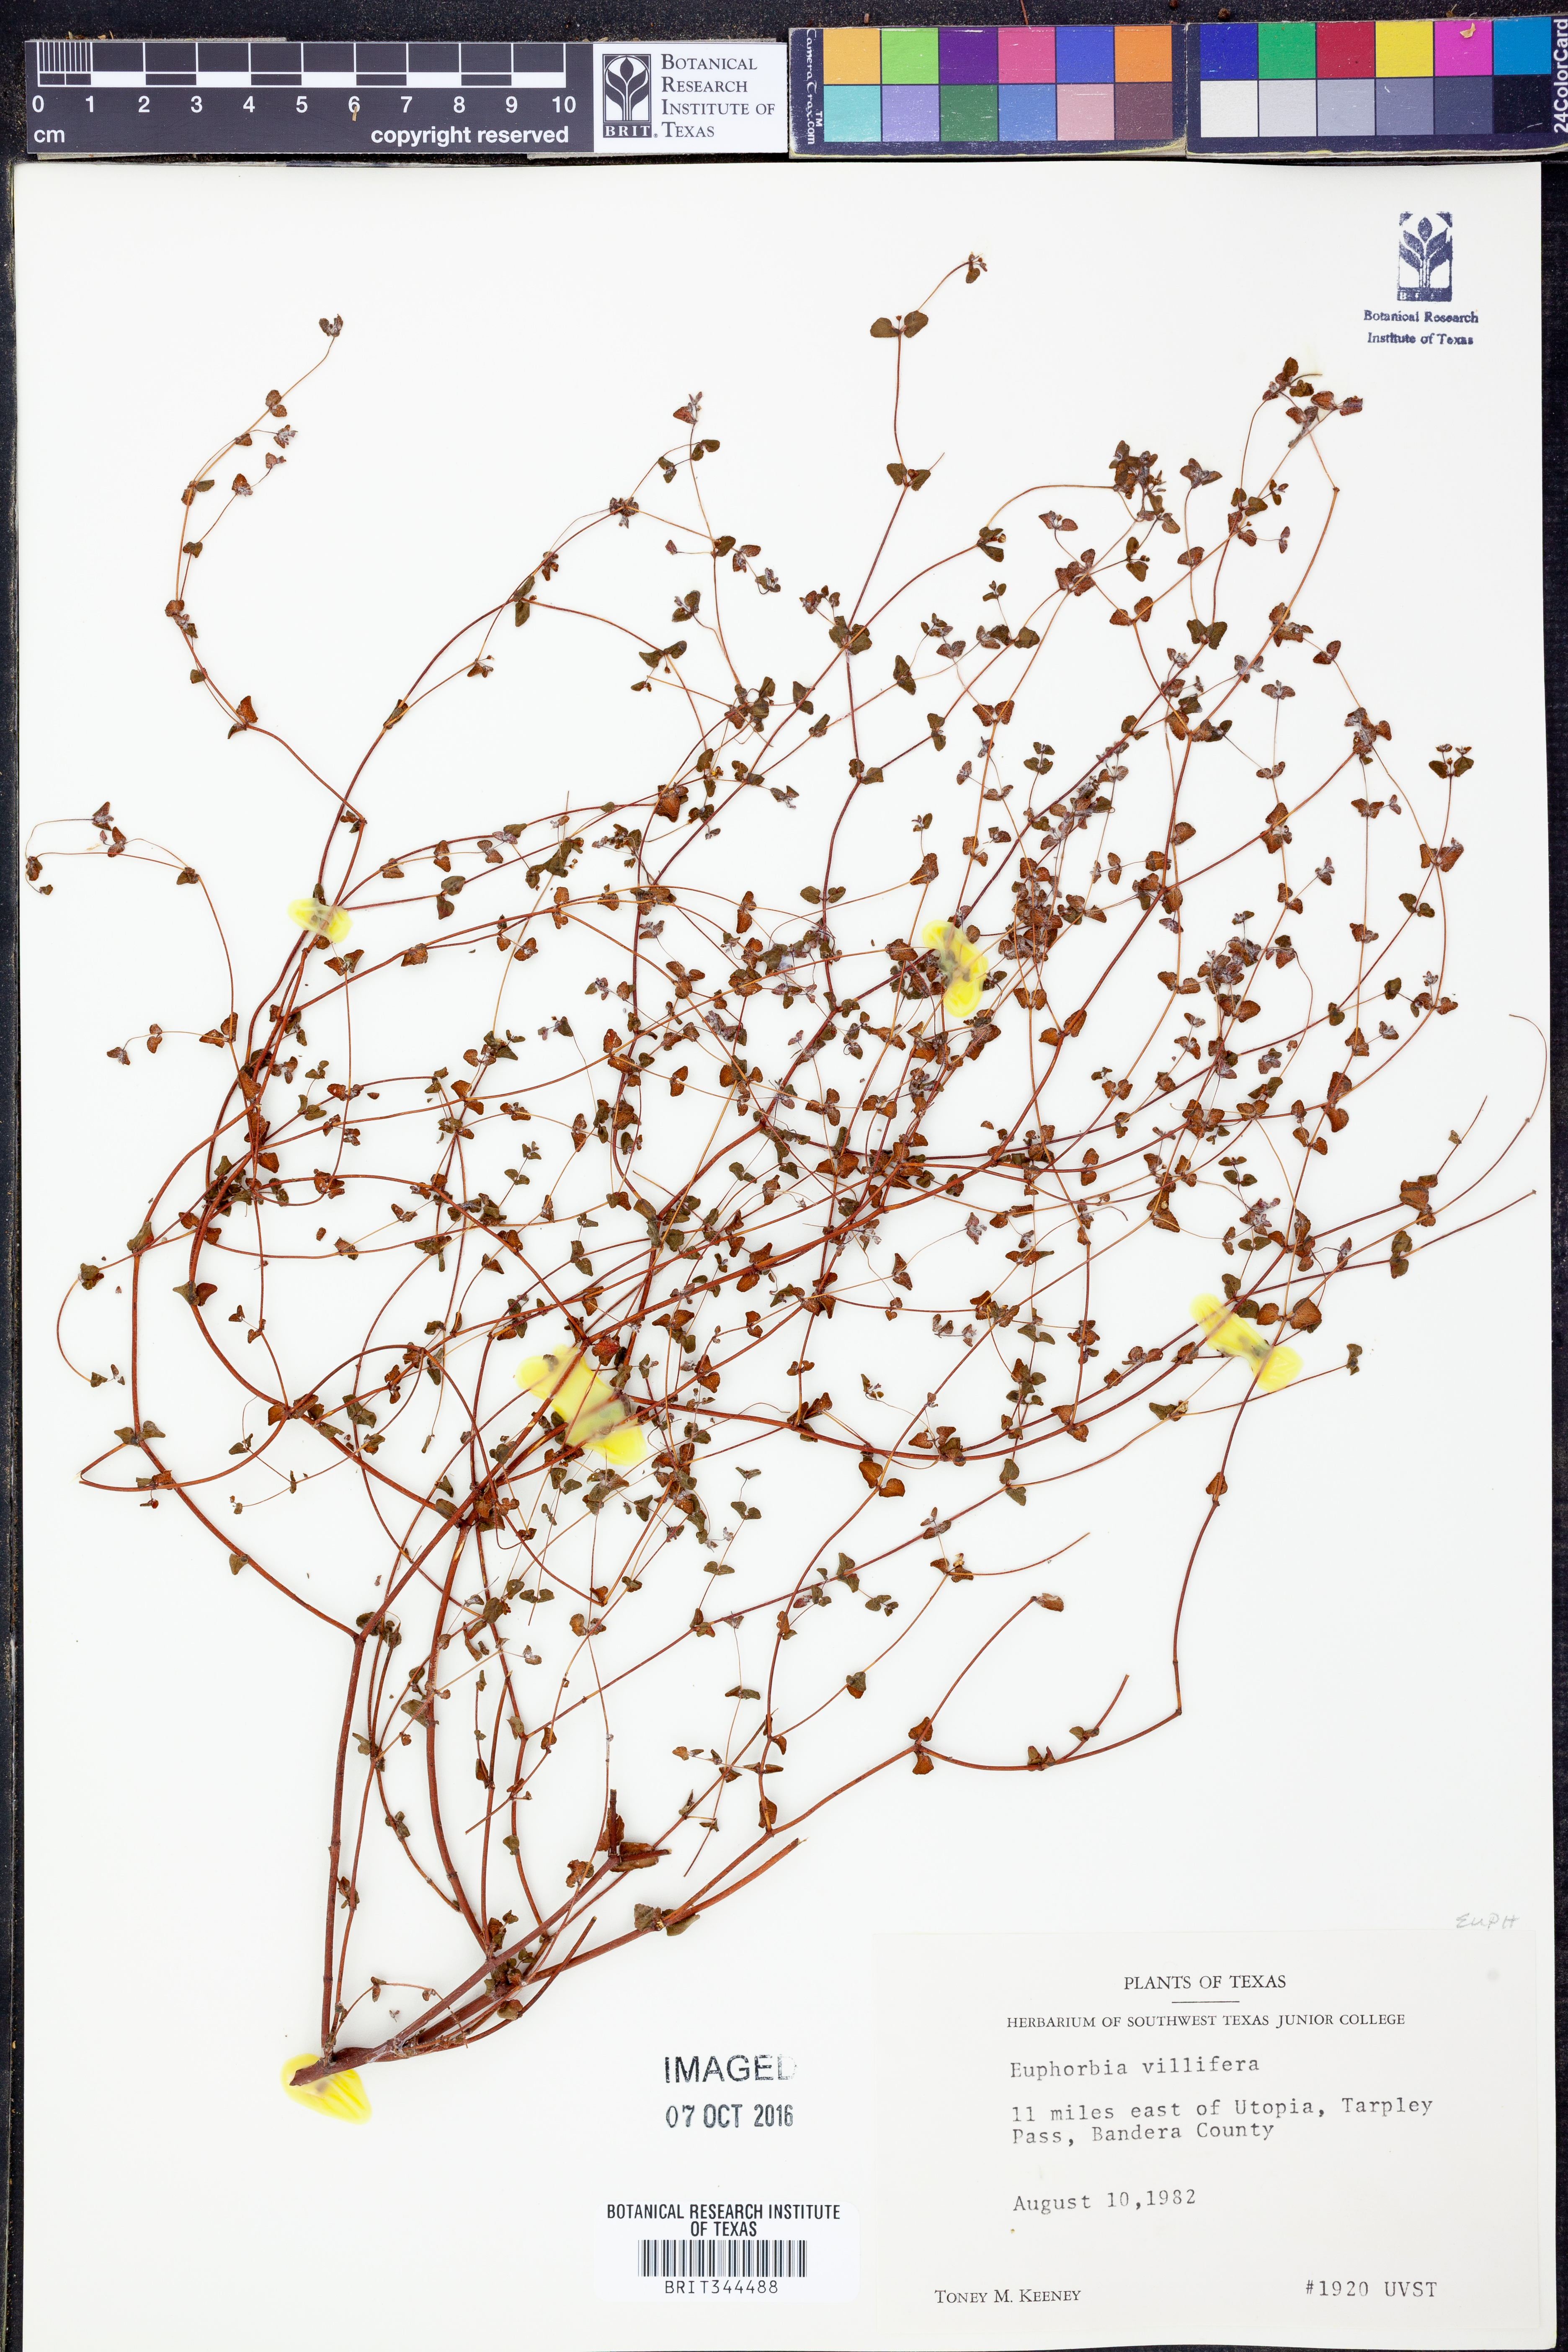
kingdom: Plantae
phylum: Tracheophyta
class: Magnoliopsida
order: Malpighiales
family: Euphorbiaceae
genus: Euphorbia
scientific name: Euphorbia micractina
